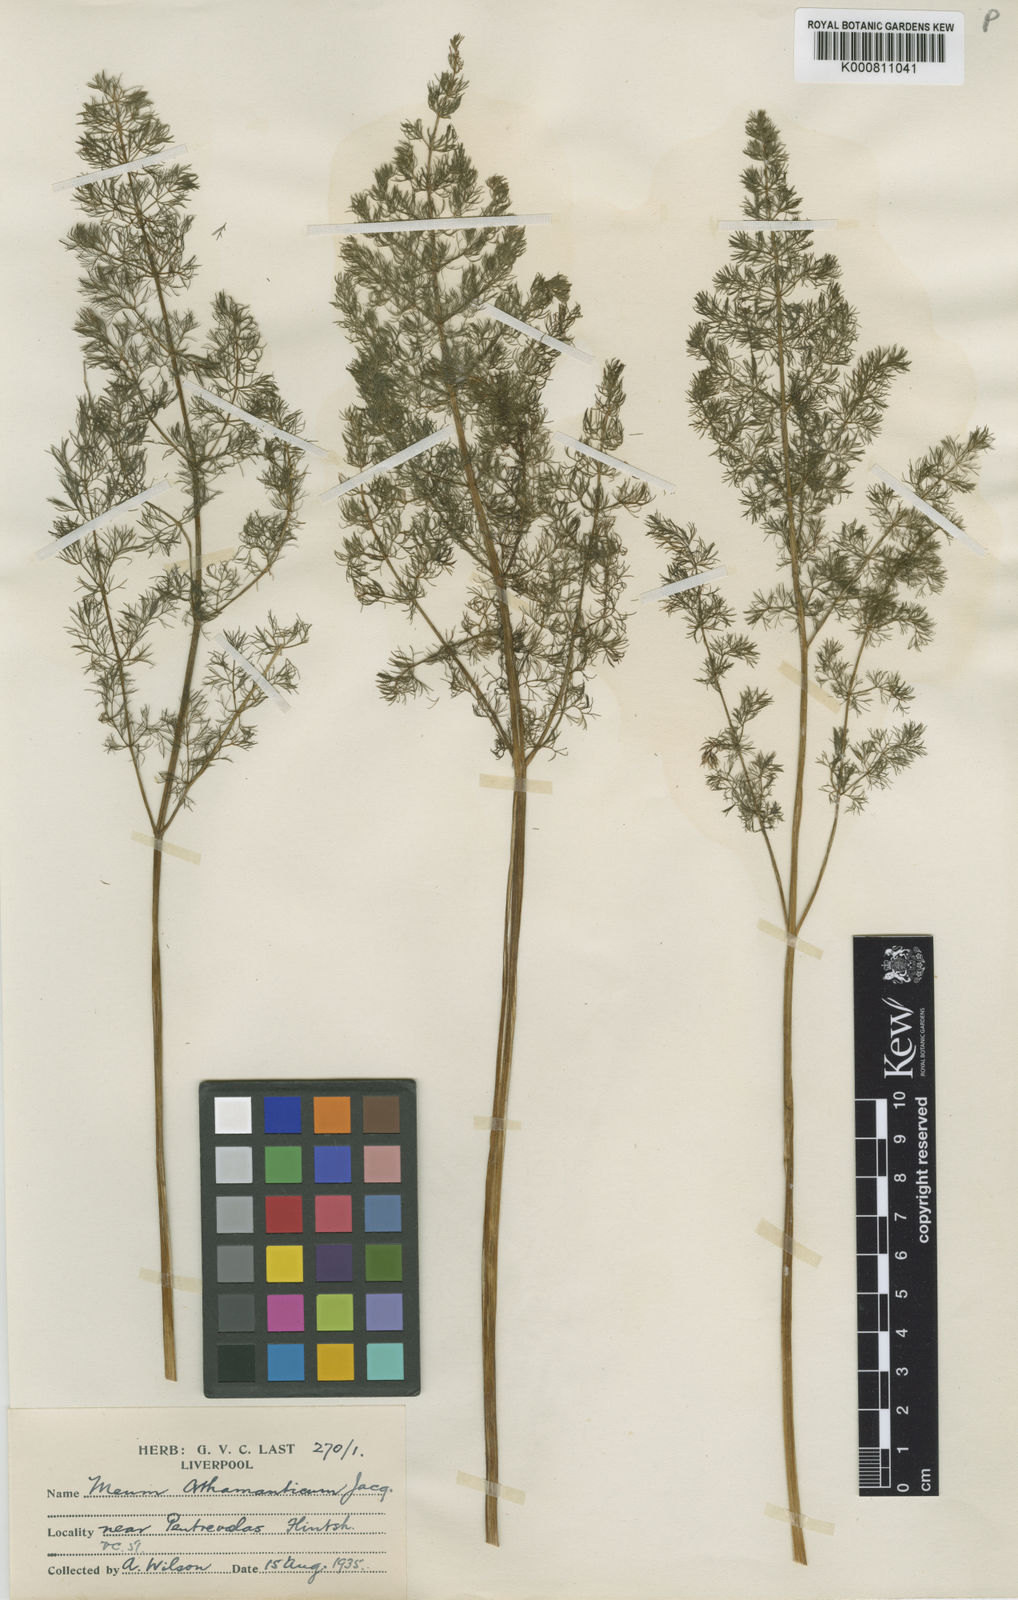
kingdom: Plantae
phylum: Tracheophyta
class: Magnoliopsida
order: Apiales
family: Apiaceae
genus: Meum
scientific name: Meum athamanticum
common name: Spignel
